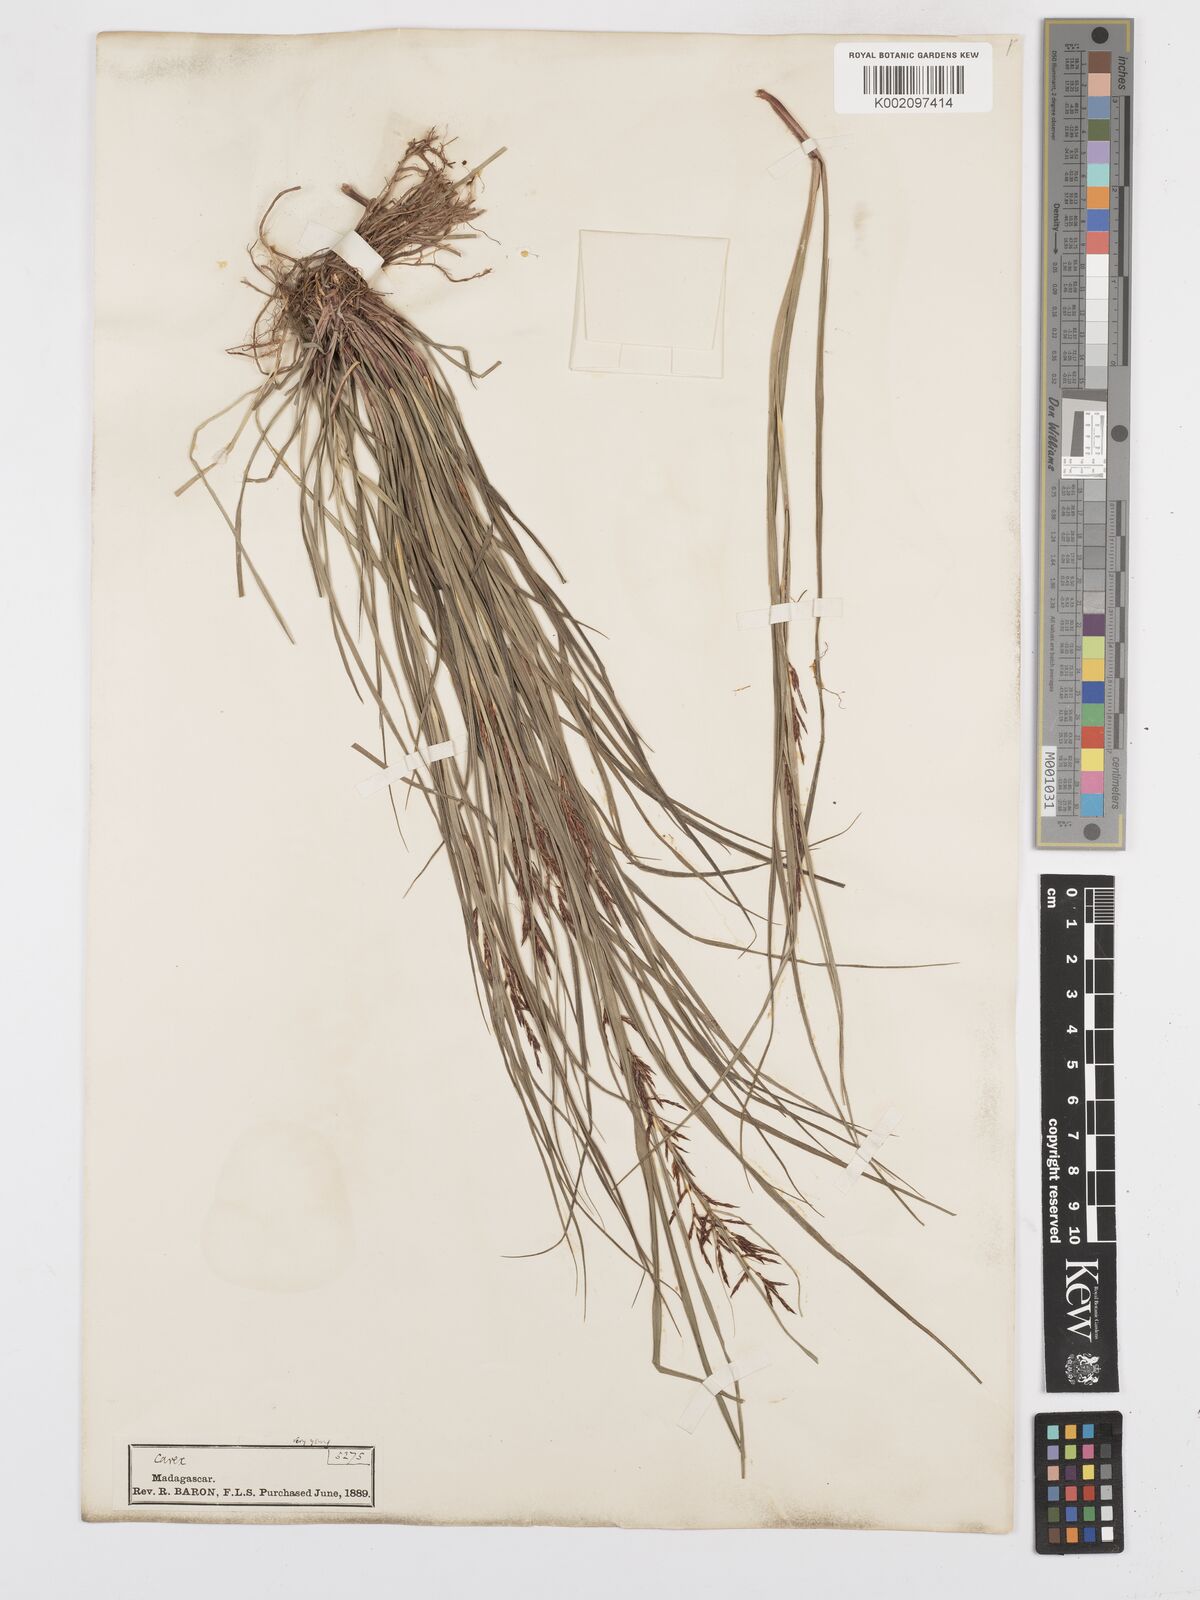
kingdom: Plantae
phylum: Tracheophyta
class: Liliopsida
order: Poales
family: Cyperaceae
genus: Carex
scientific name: Carex
